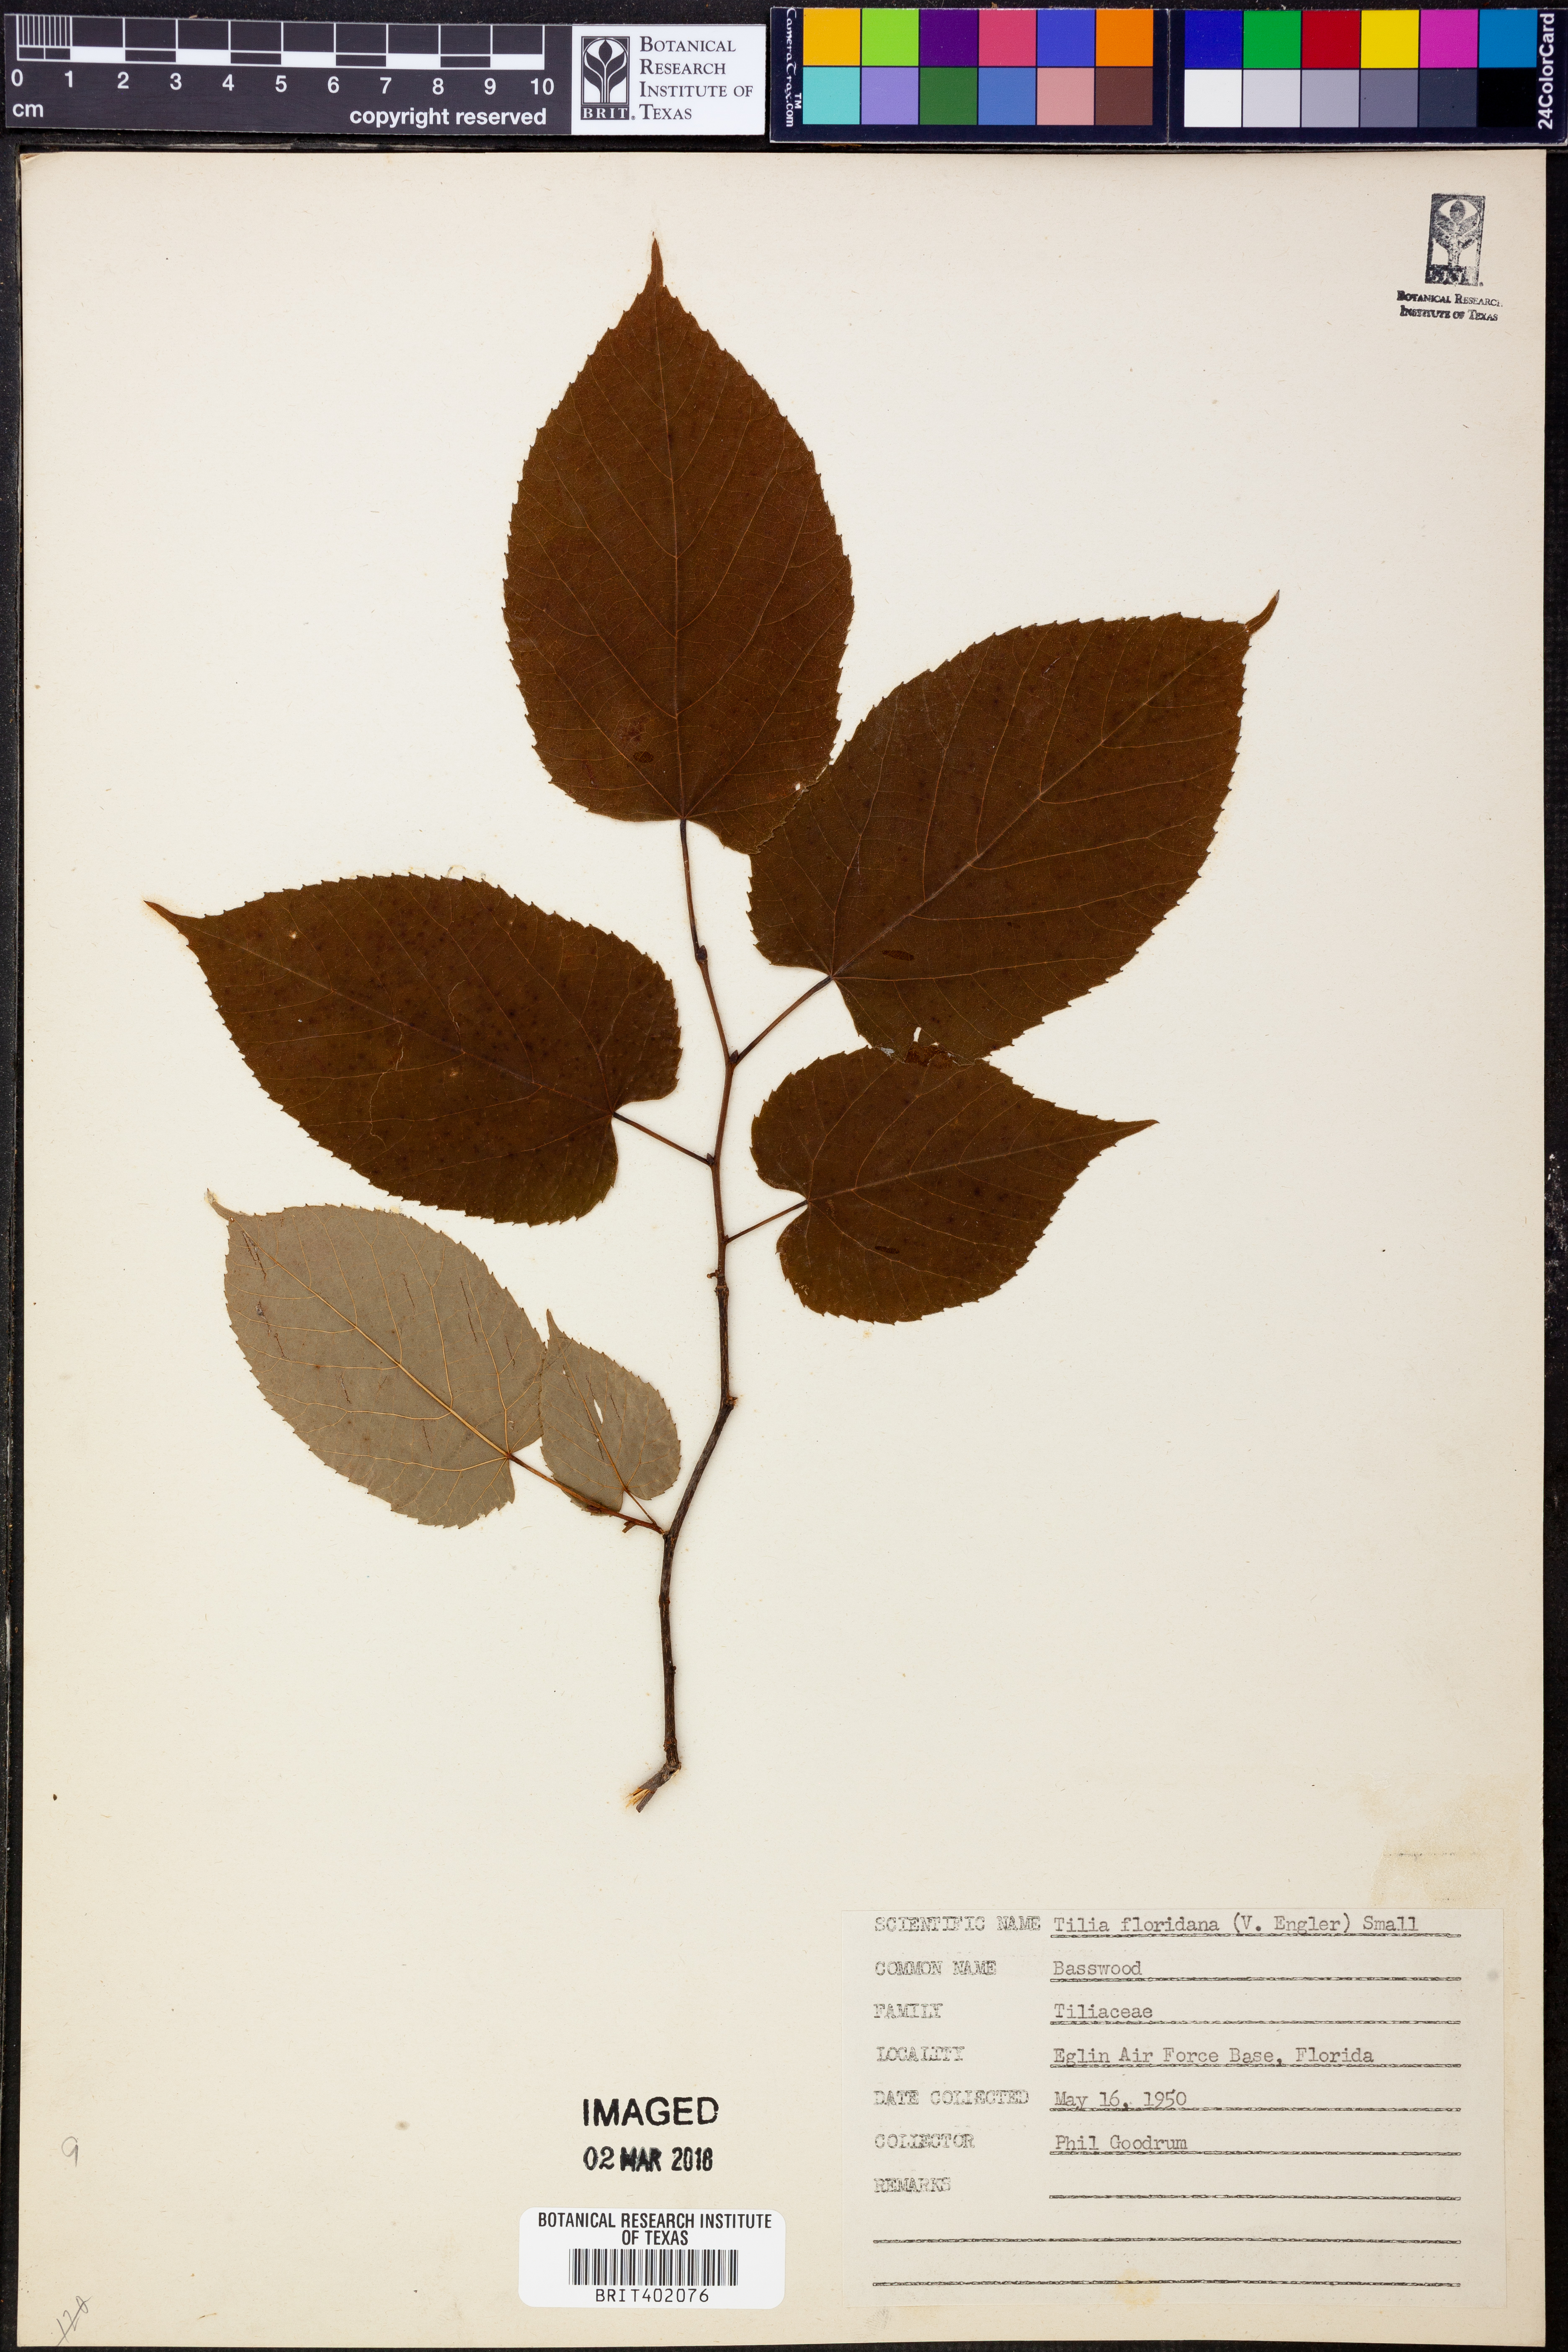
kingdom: Plantae
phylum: Tracheophyta
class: Magnoliopsida
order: Malvales
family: Malvaceae
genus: Tilia
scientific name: Tilia americana
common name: Basswood
